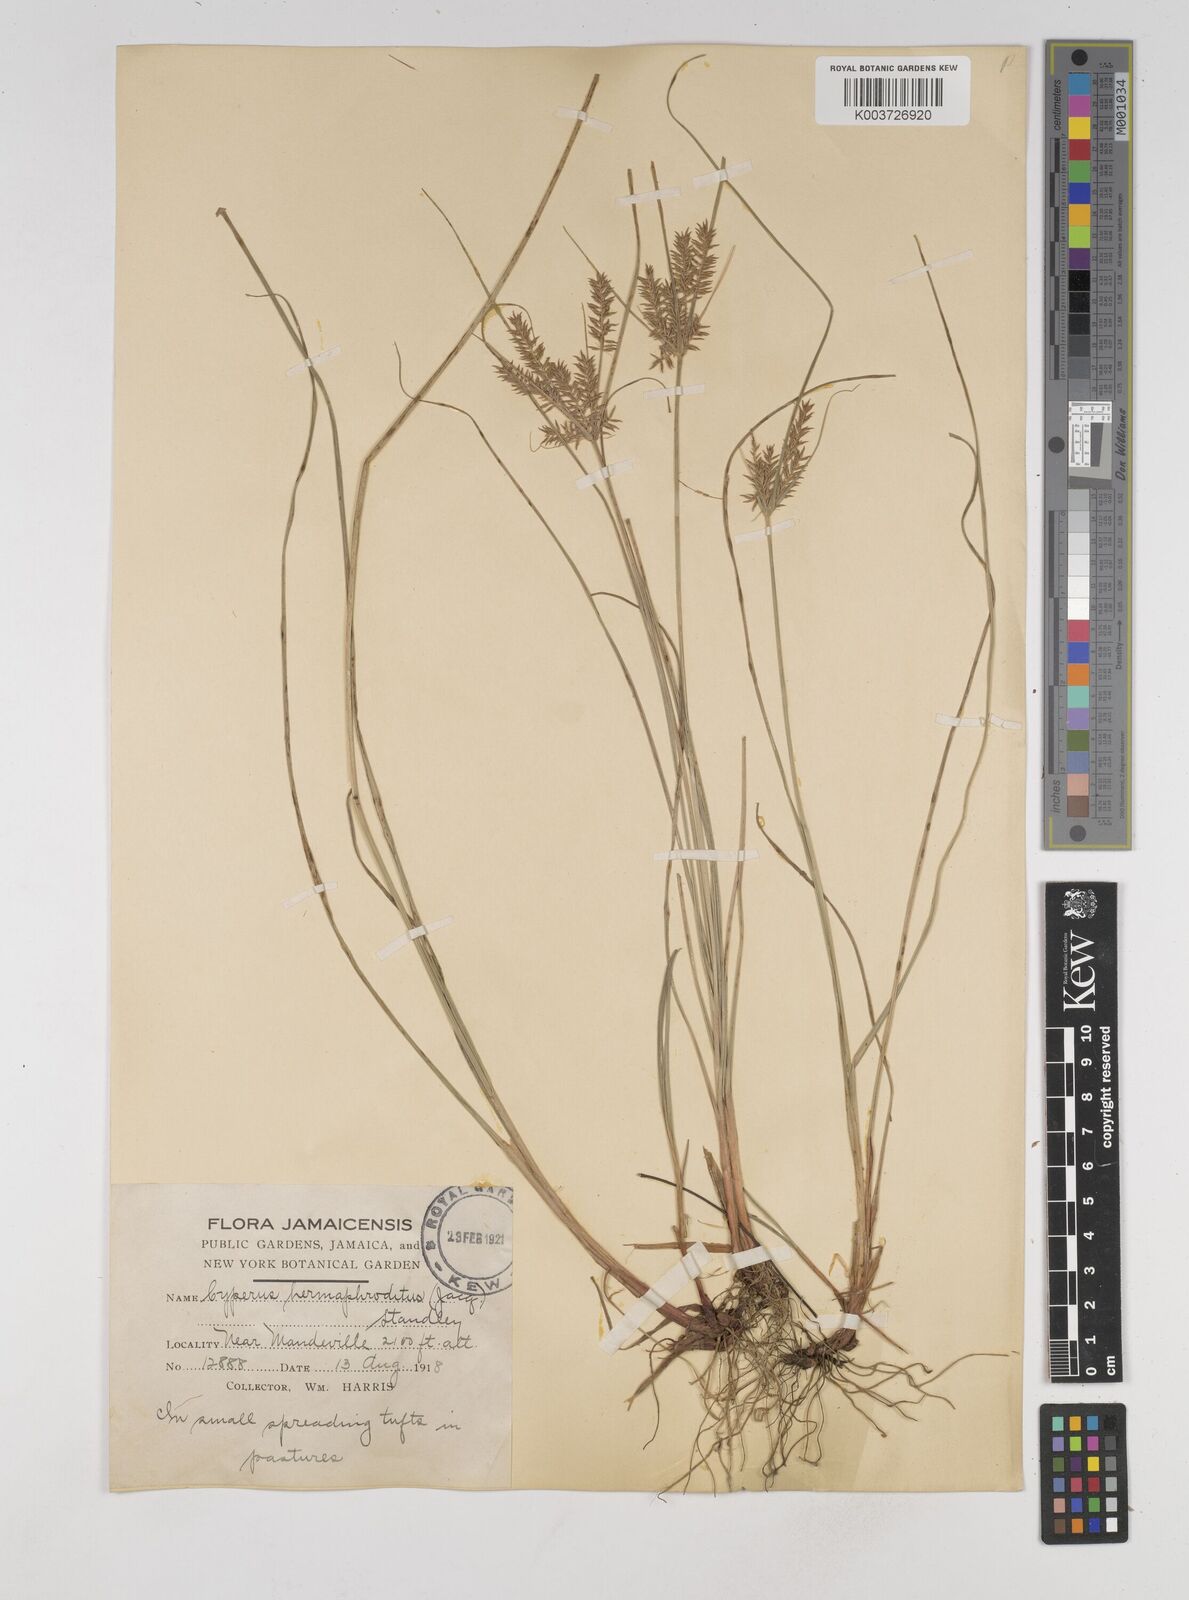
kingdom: Plantae
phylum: Tracheophyta
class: Liliopsida
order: Poales
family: Cyperaceae
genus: Cyperus
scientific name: Cyperus hermaphroditus
